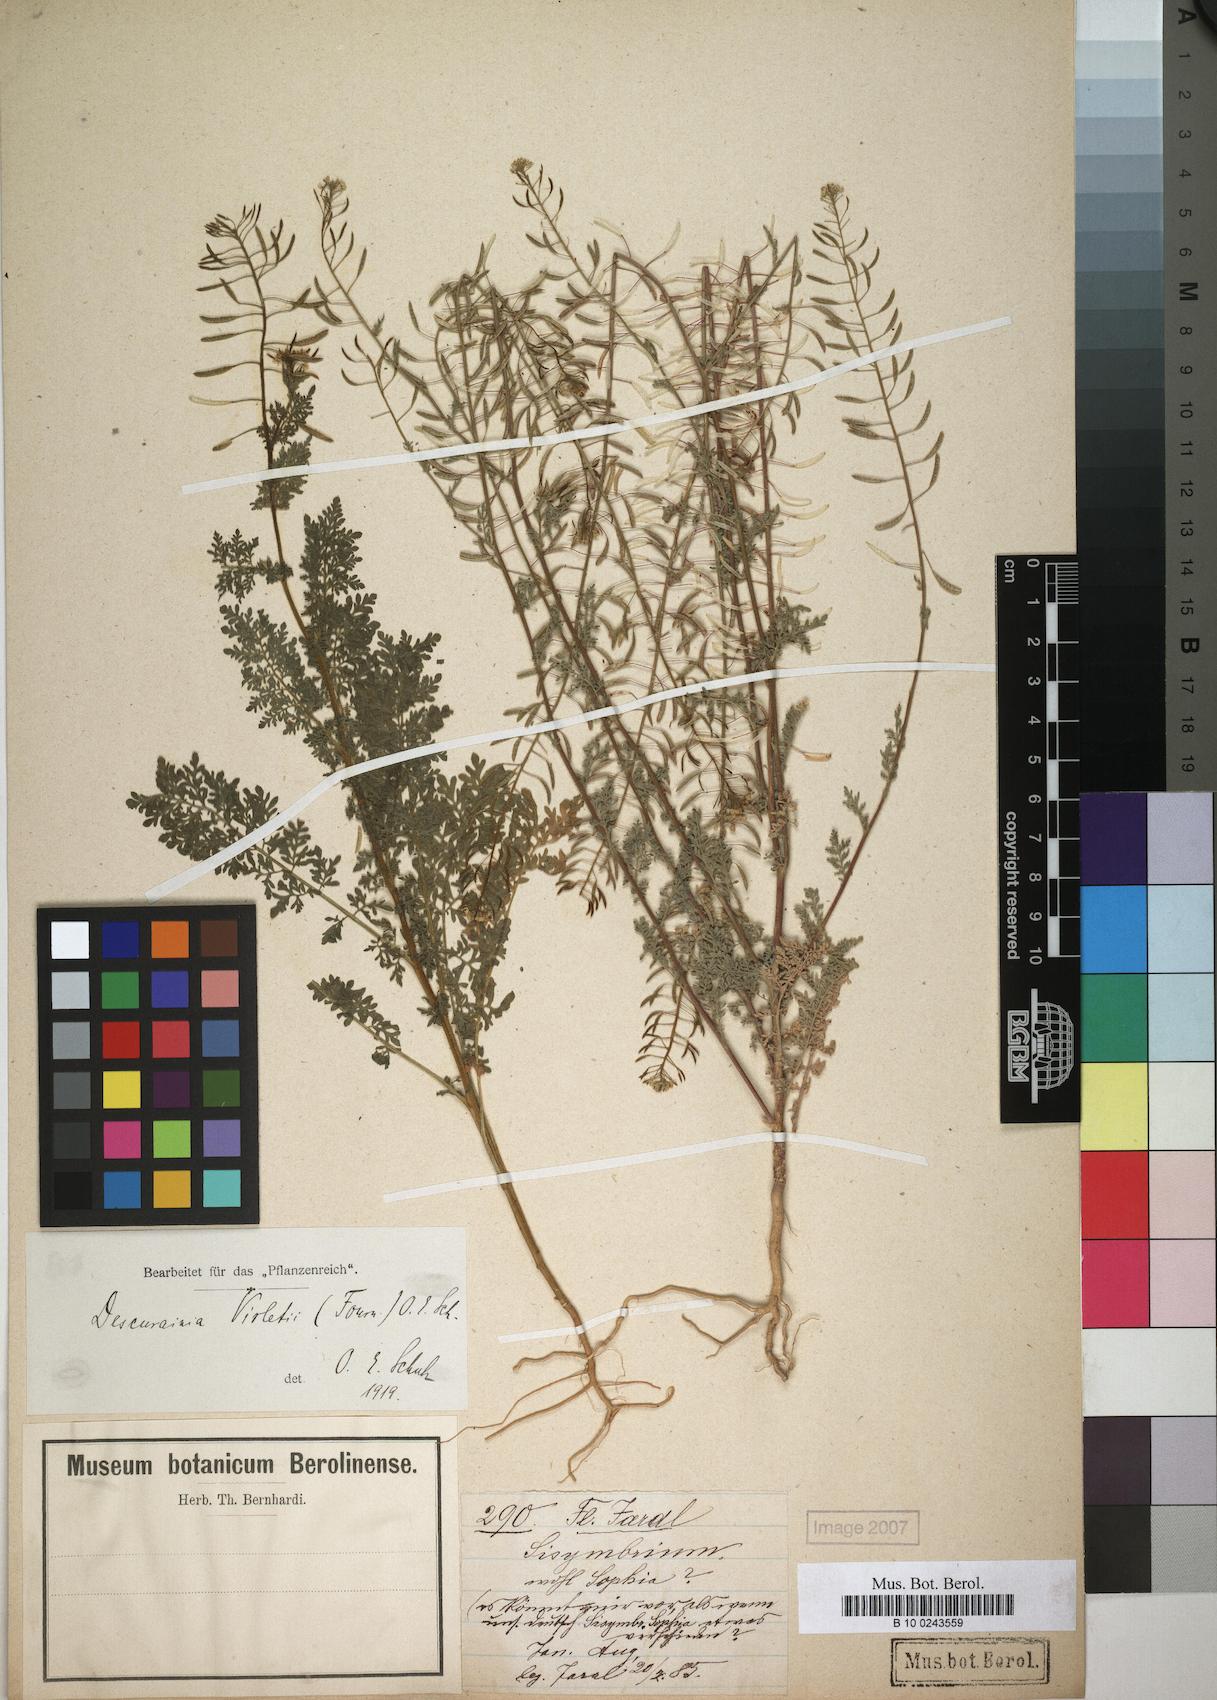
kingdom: Plantae
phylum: Tracheophyta
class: Magnoliopsida
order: Brassicales
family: Brassicaceae
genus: Descurainia
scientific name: Descurainia virletii
